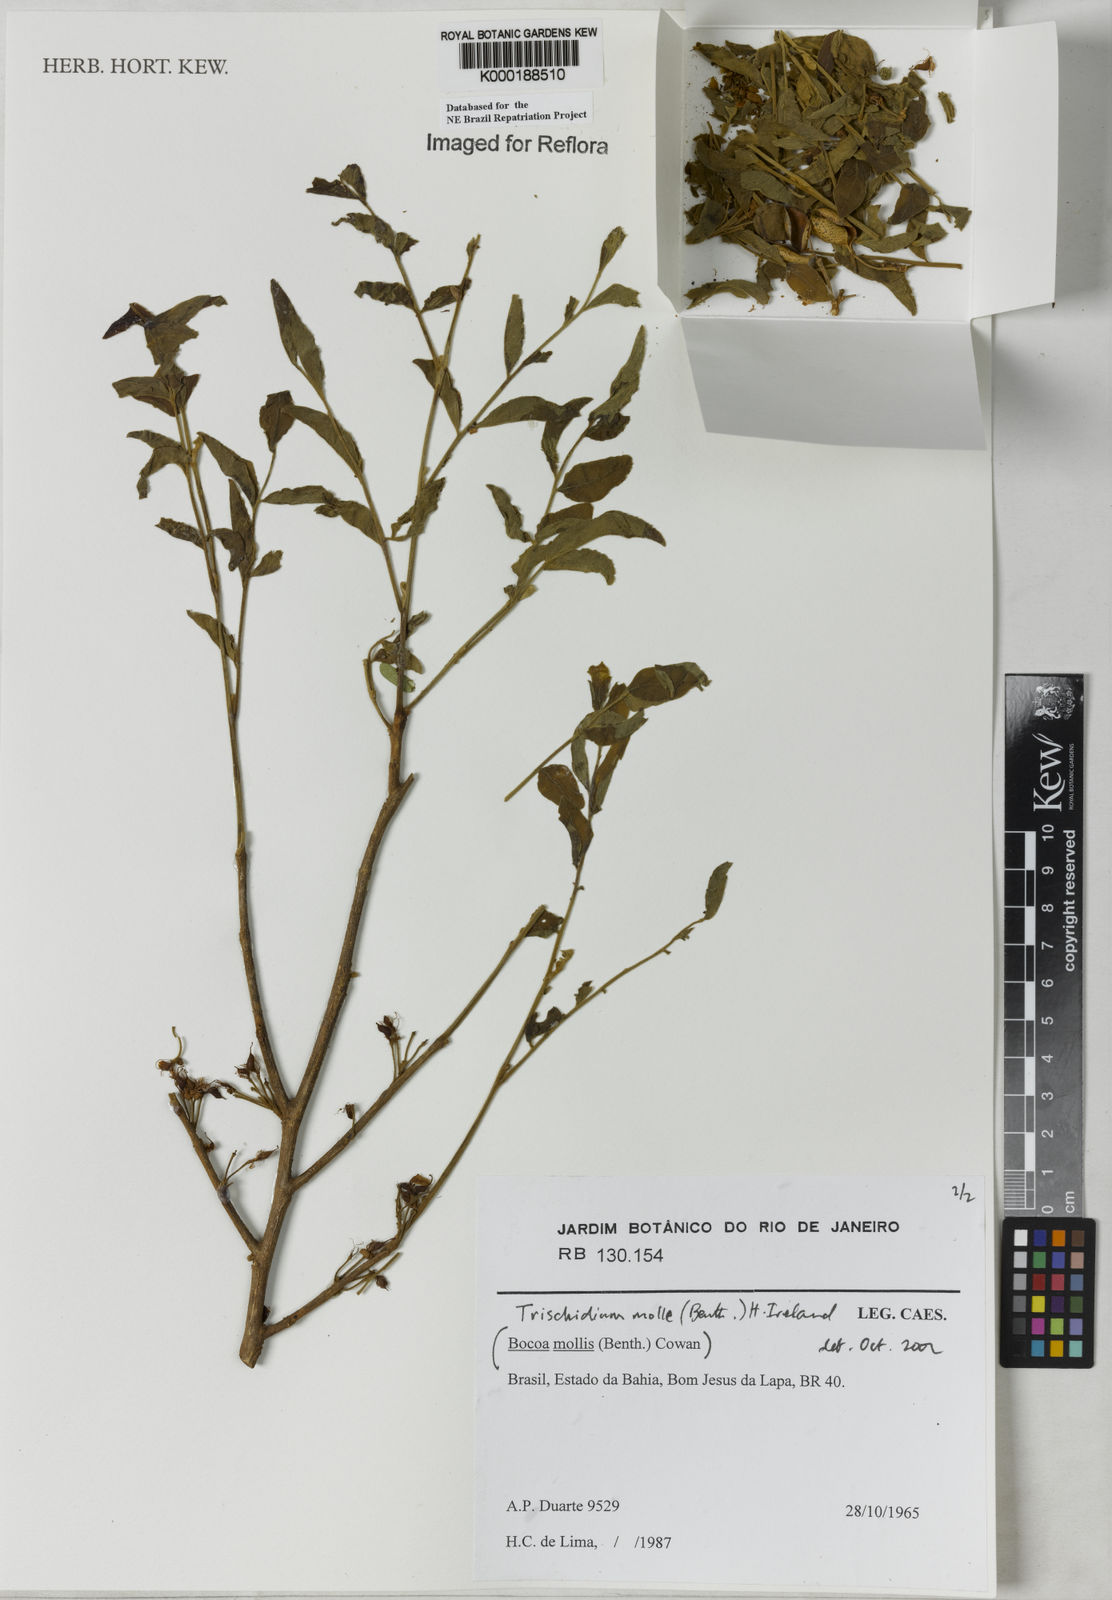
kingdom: Plantae
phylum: Tracheophyta
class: Magnoliopsida
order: Fabales
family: Fabaceae
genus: Trischidium
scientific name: Trischidium
